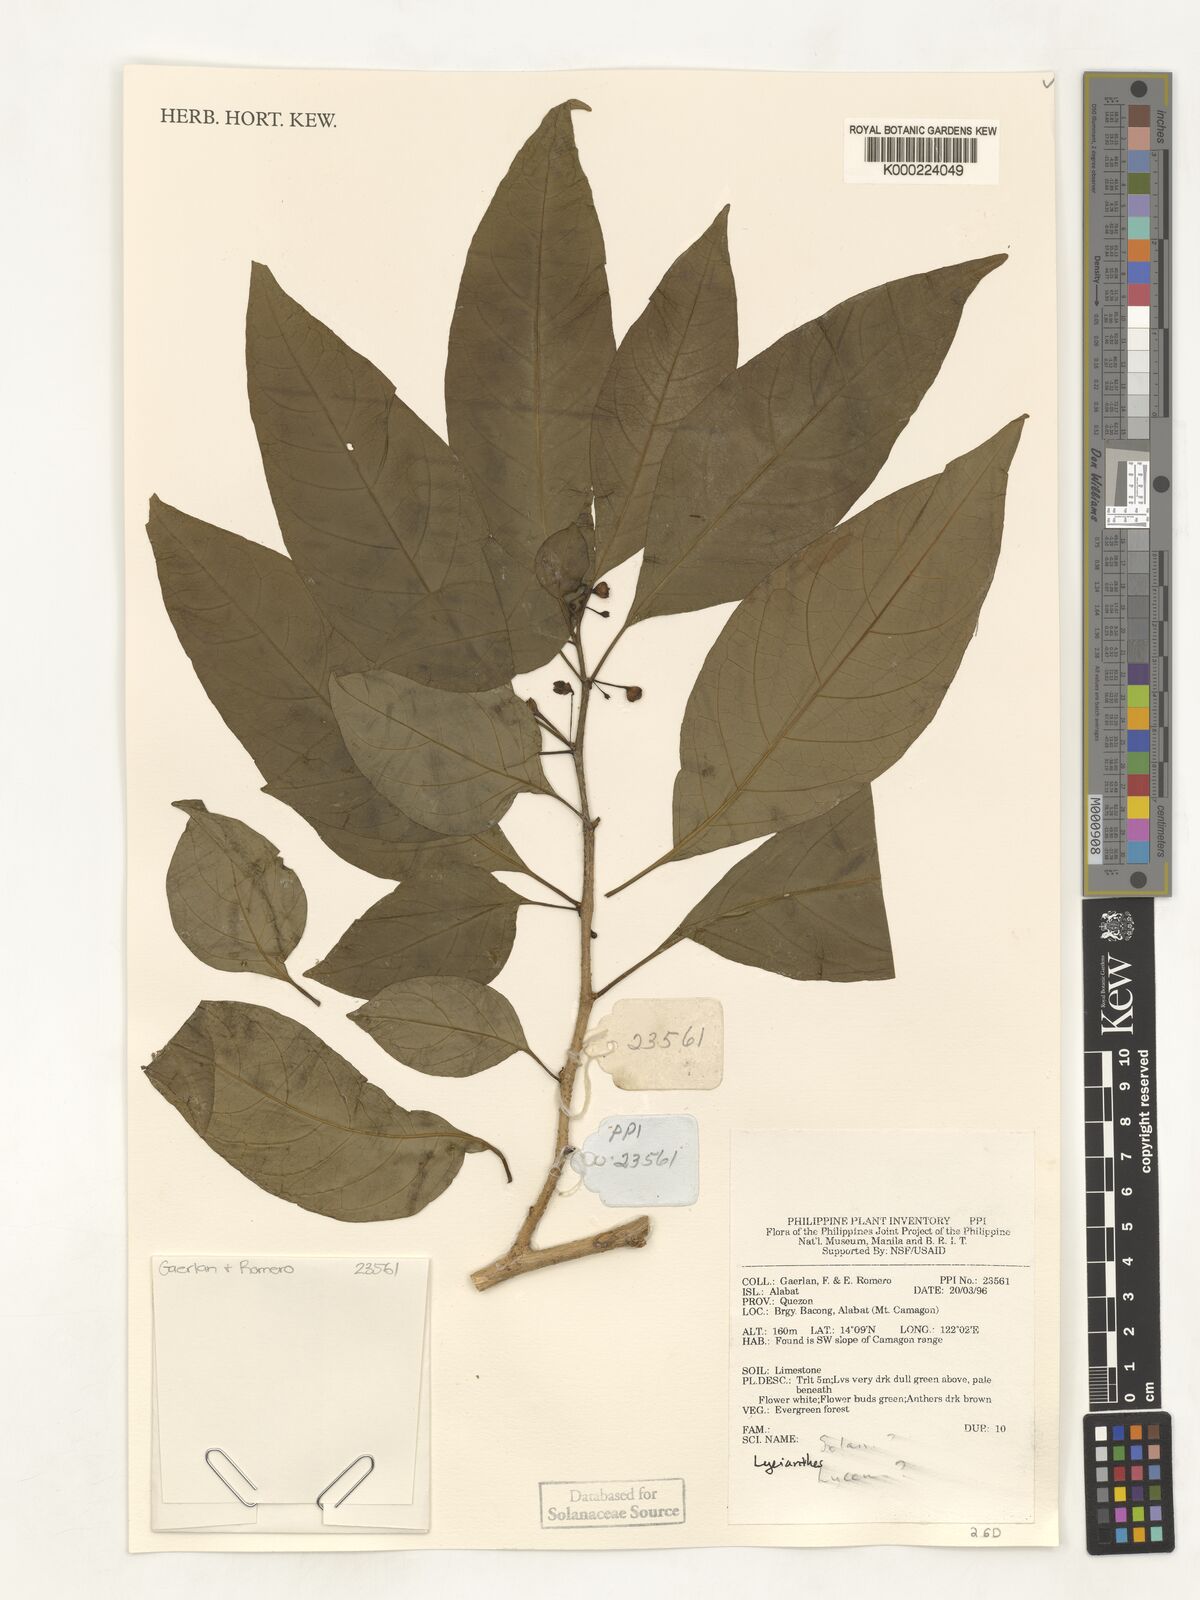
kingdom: Plantae
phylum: Tracheophyta
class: Magnoliopsida
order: Solanales
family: Solanaceae
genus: Lycianthes
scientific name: Lycianthes
